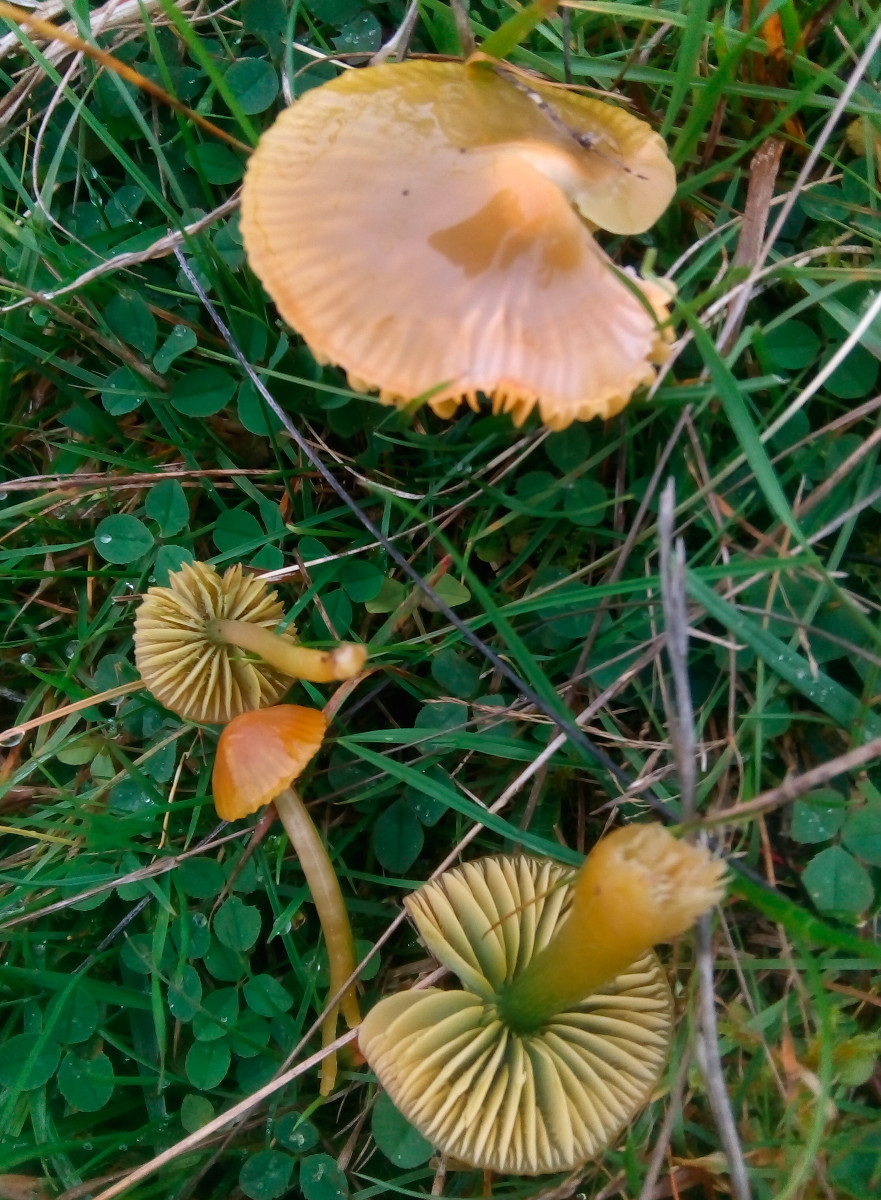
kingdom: Fungi
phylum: Basidiomycota
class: Agaricomycetes
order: Agaricales
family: Hygrophoraceae
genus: Gliophorus
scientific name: Gliophorus psittacinus
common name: papegøje-vokshat
